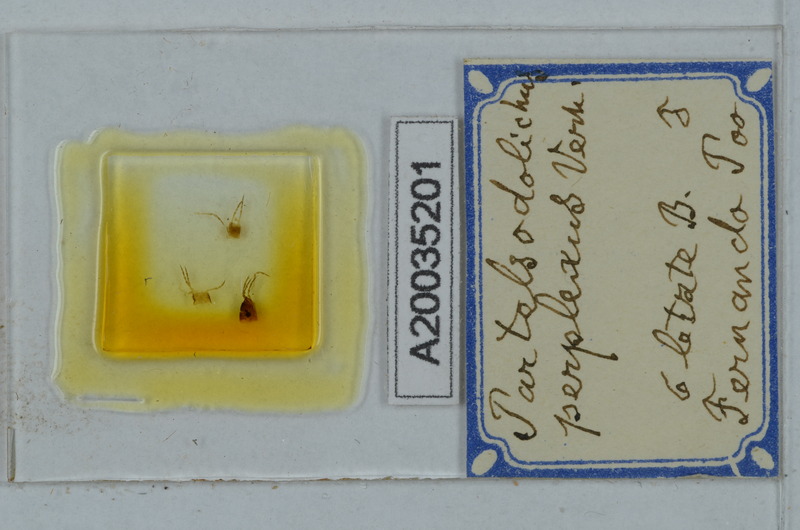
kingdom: Animalia
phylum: Arthropoda
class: Diplopoda
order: Polydesmida
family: Paradoxosomatidae
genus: Scolodesmus
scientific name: Scolodesmus perplexus
